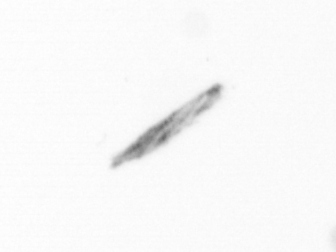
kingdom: Chromista
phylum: Ochrophyta
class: Bacillariophyceae
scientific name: Bacillariophyceae
